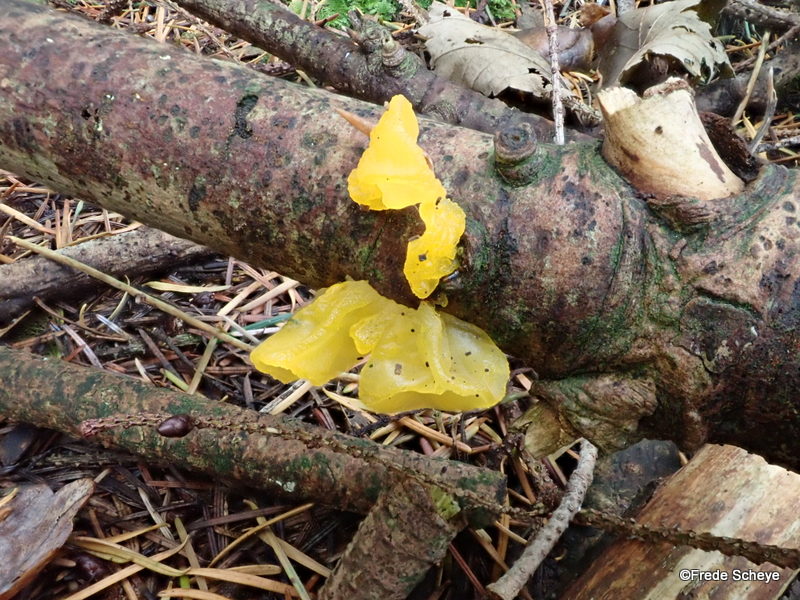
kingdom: Fungi
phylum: Basidiomycota
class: Tremellomycetes
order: Tremellales
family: Tremellaceae
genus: Tremella
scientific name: Tremella mesenterica
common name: gul bævresvamp
